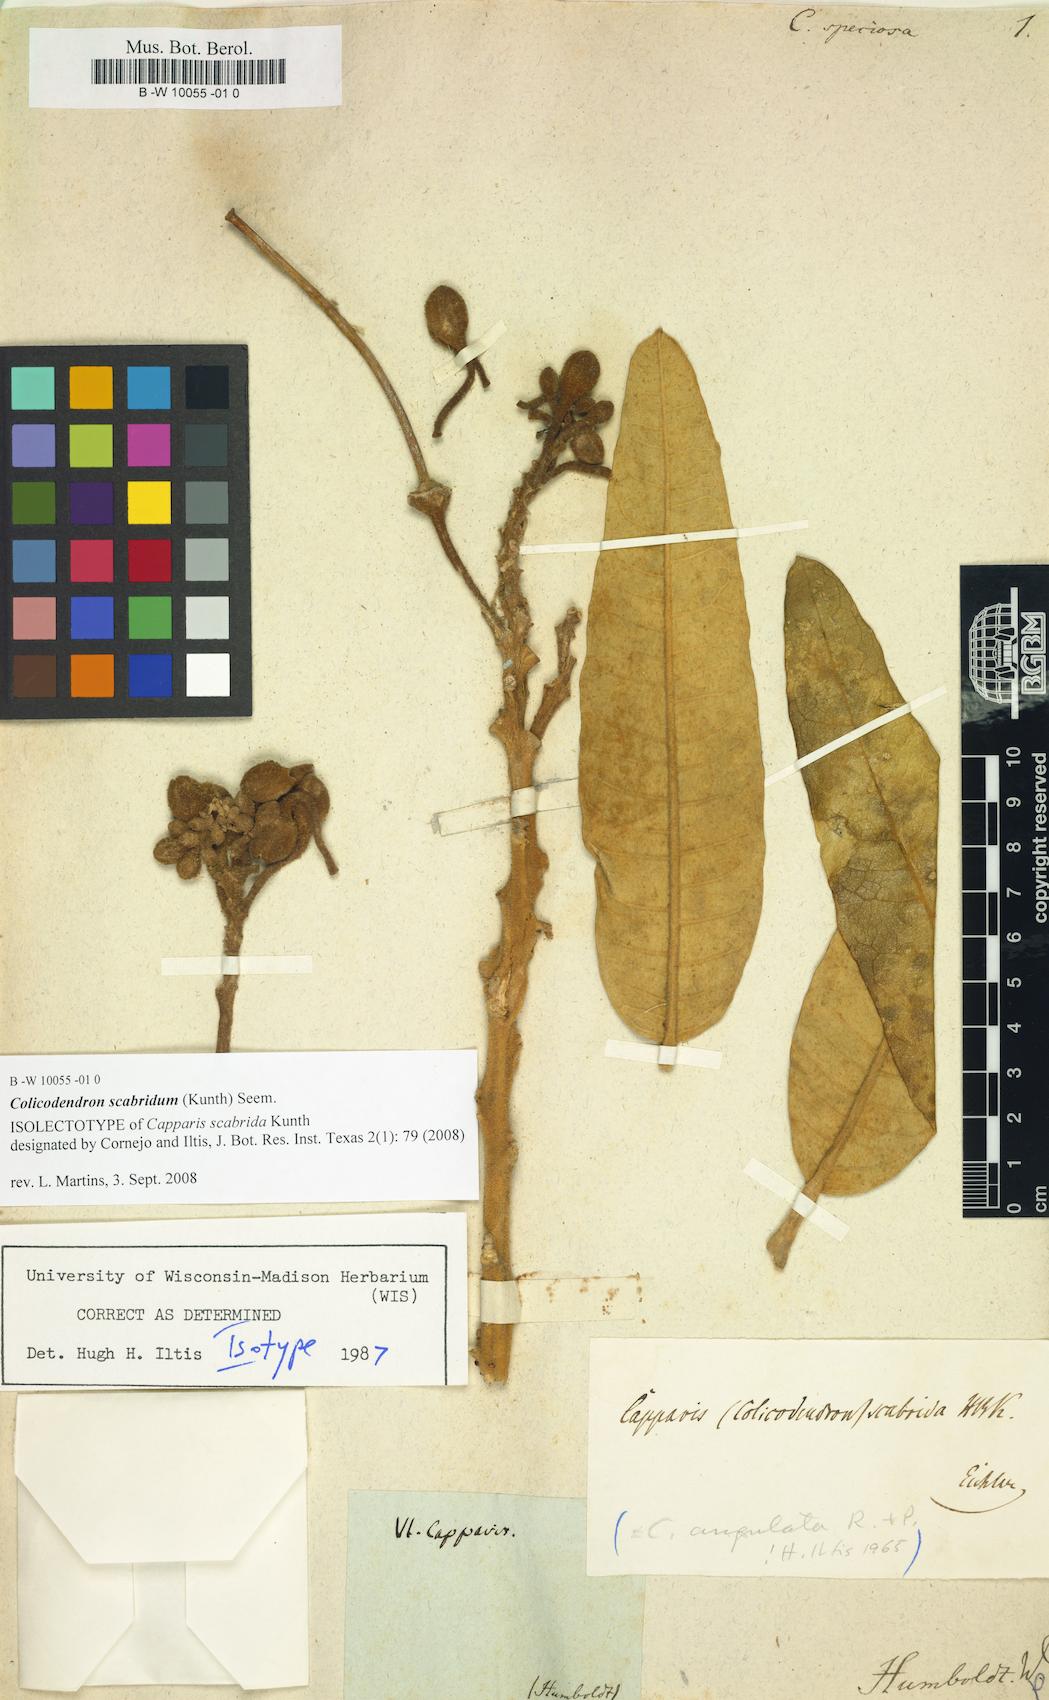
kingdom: Plantae
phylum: Tracheophyta
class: Magnoliopsida
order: Brassicales
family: Capparaceae
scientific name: Capparaceae
